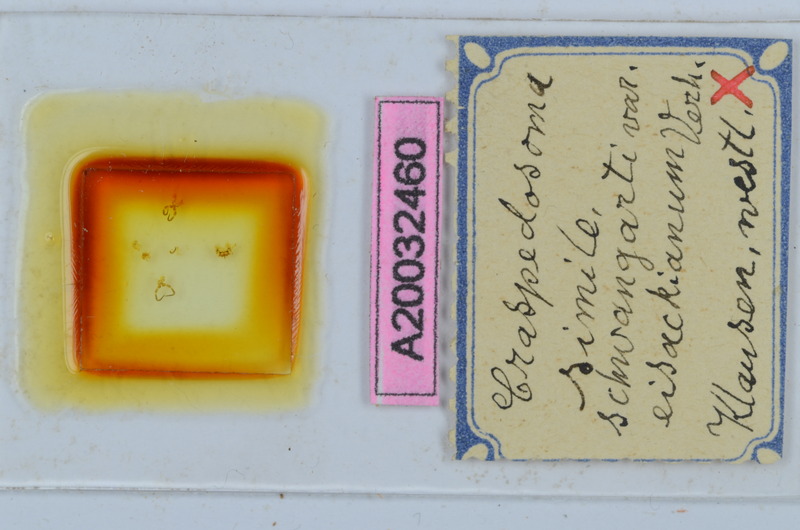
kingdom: Animalia
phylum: Arthropoda
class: Diplopoda
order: Chordeumatida
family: Craspedosomatidae
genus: Craspedosoma
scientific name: Craspedosoma rawlinsii
